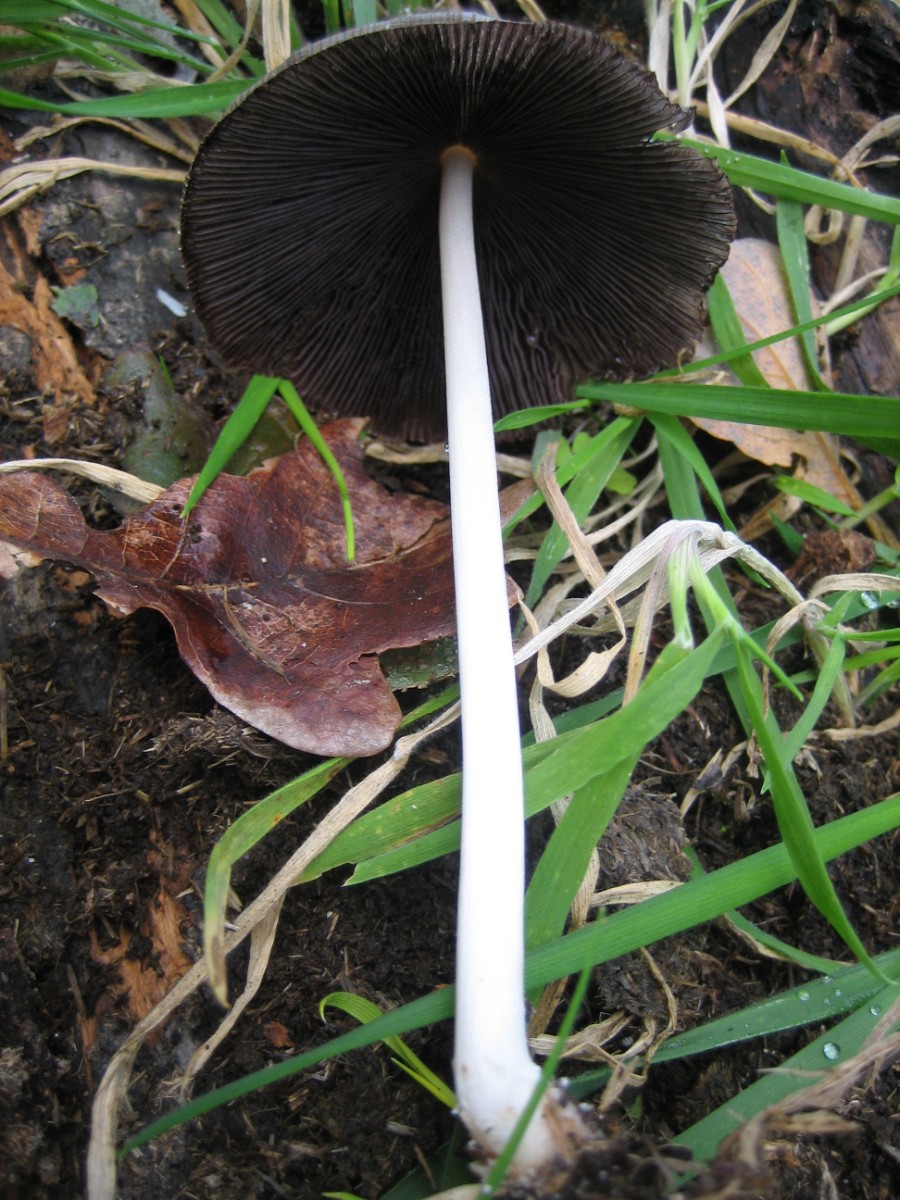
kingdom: Fungi
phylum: Basidiomycota
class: Agaricomycetes
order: Agaricales
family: Psathyrellaceae
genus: Coprinellus
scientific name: Coprinellus
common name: blækhat
